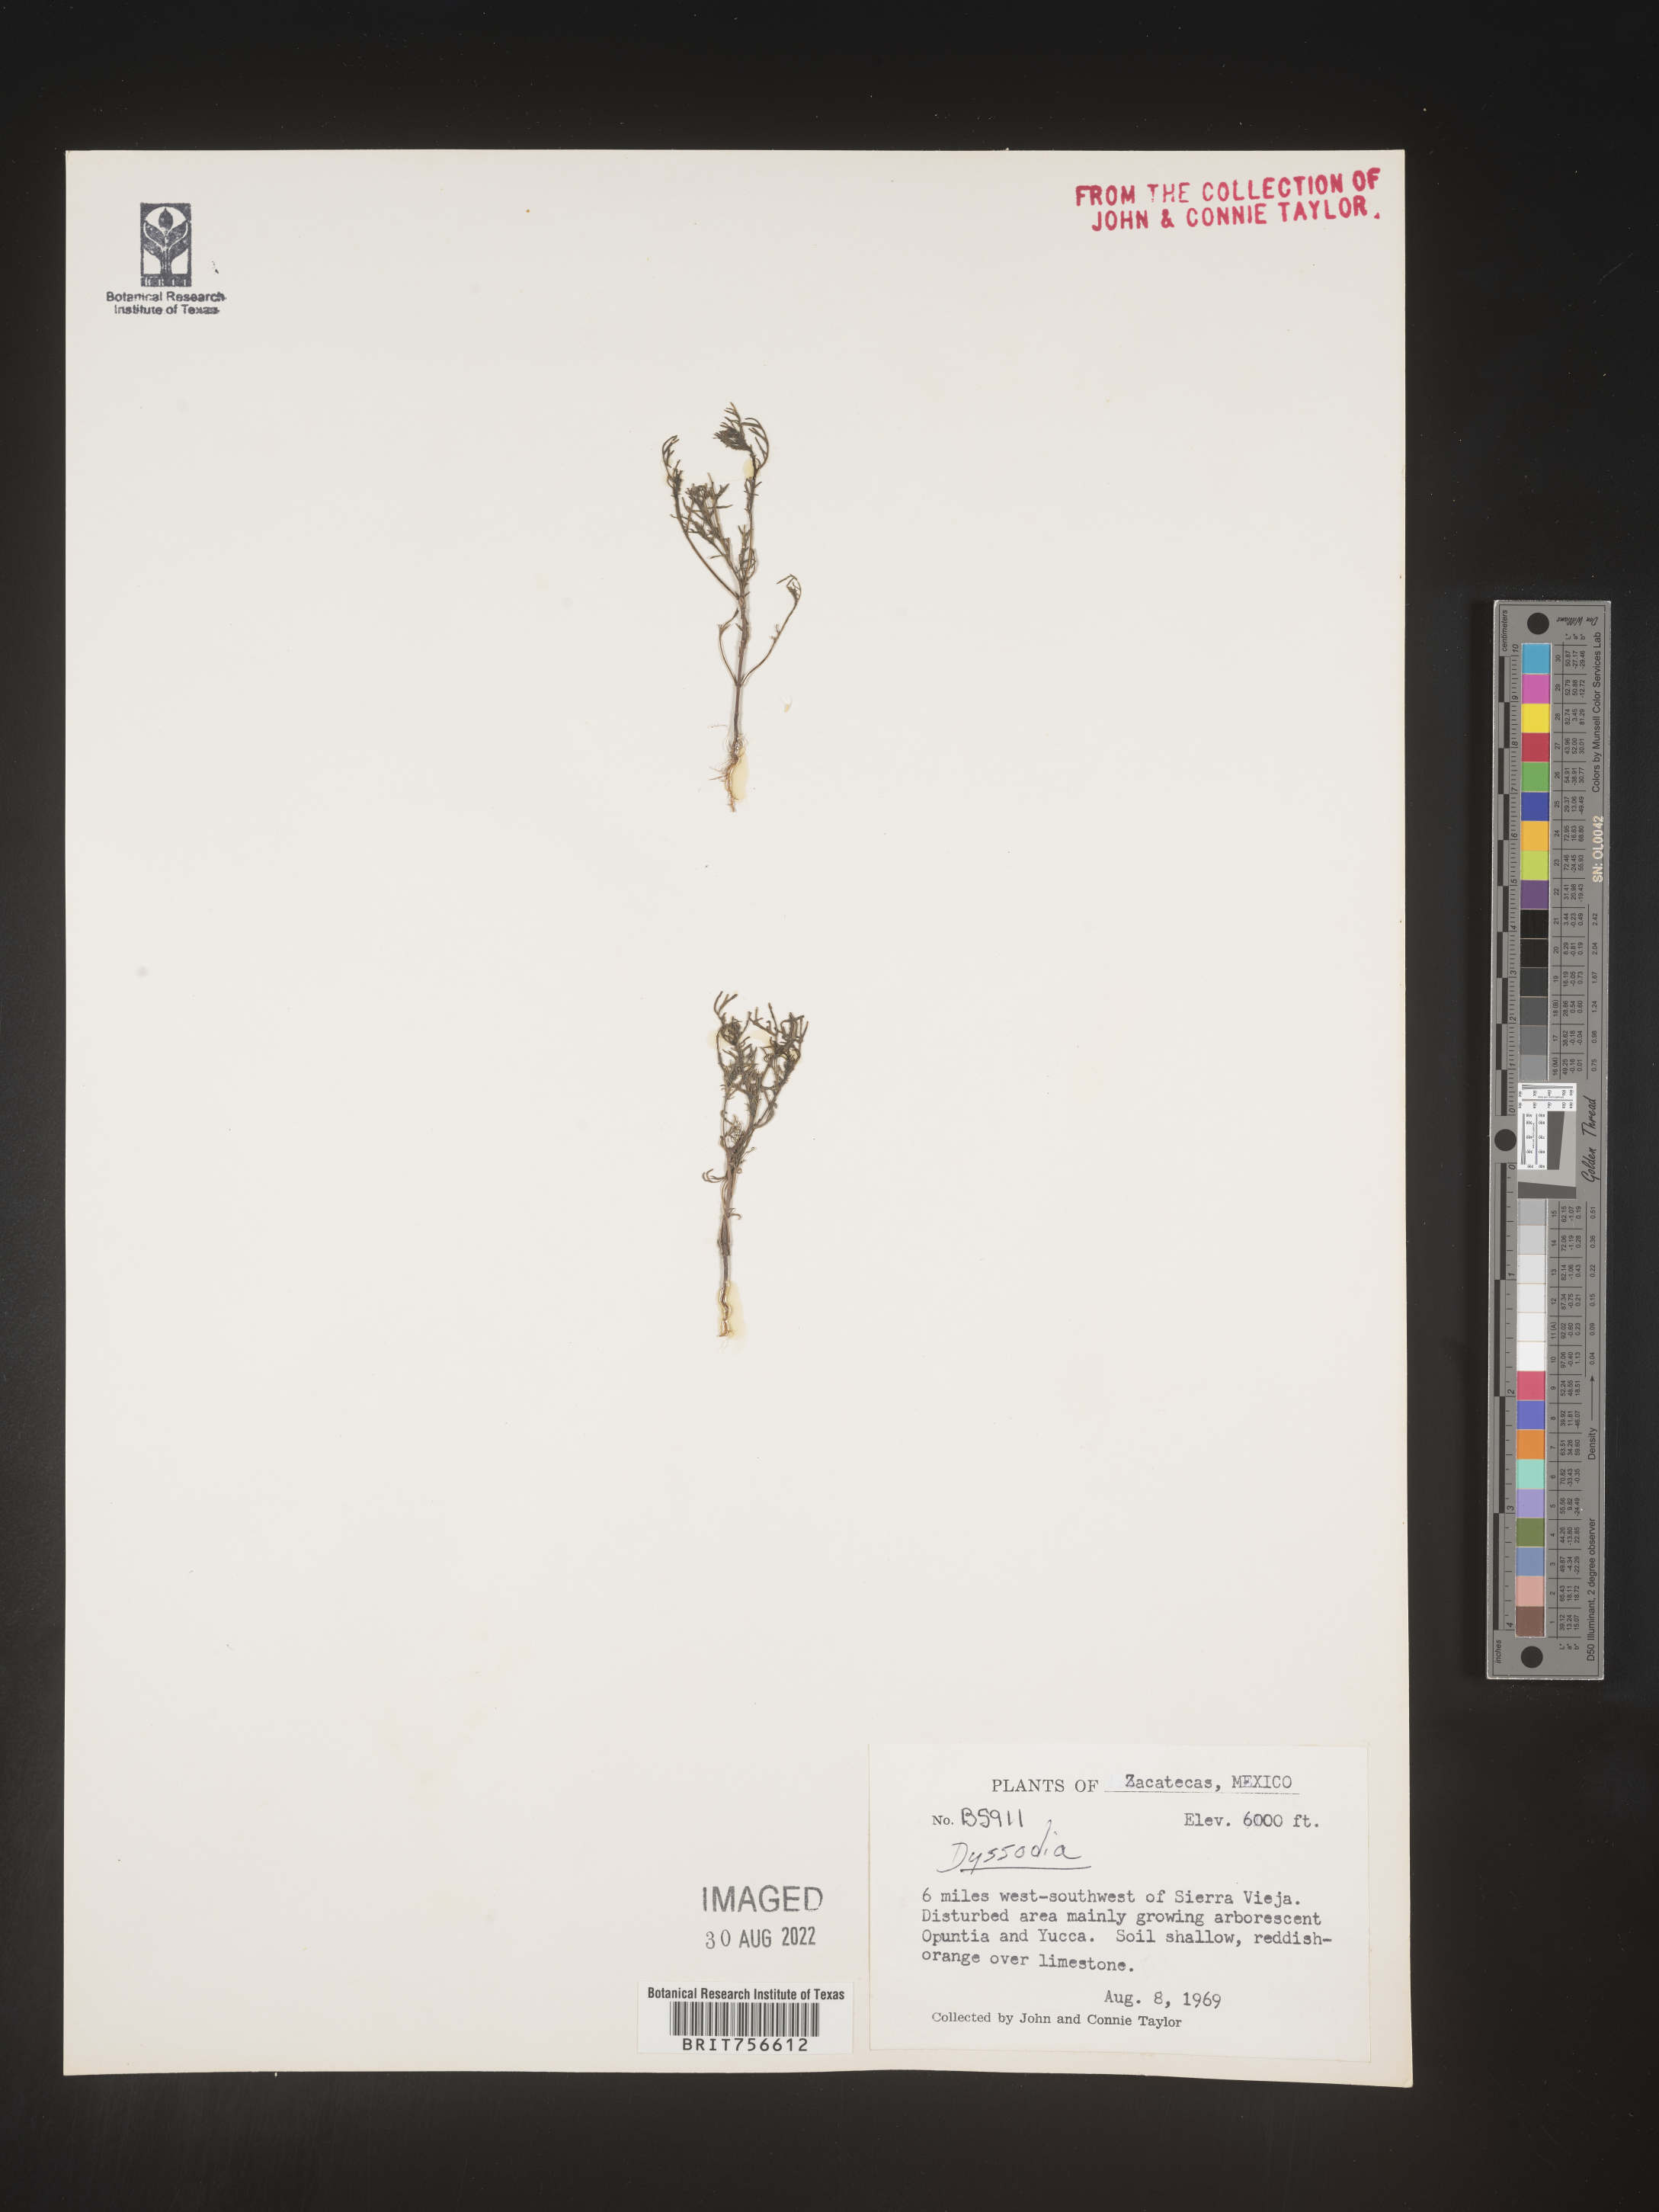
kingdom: Plantae
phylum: Tracheophyta
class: Magnoliopsida
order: Asterales
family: Asteraceae
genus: Thymophylla
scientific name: Thymophylla
